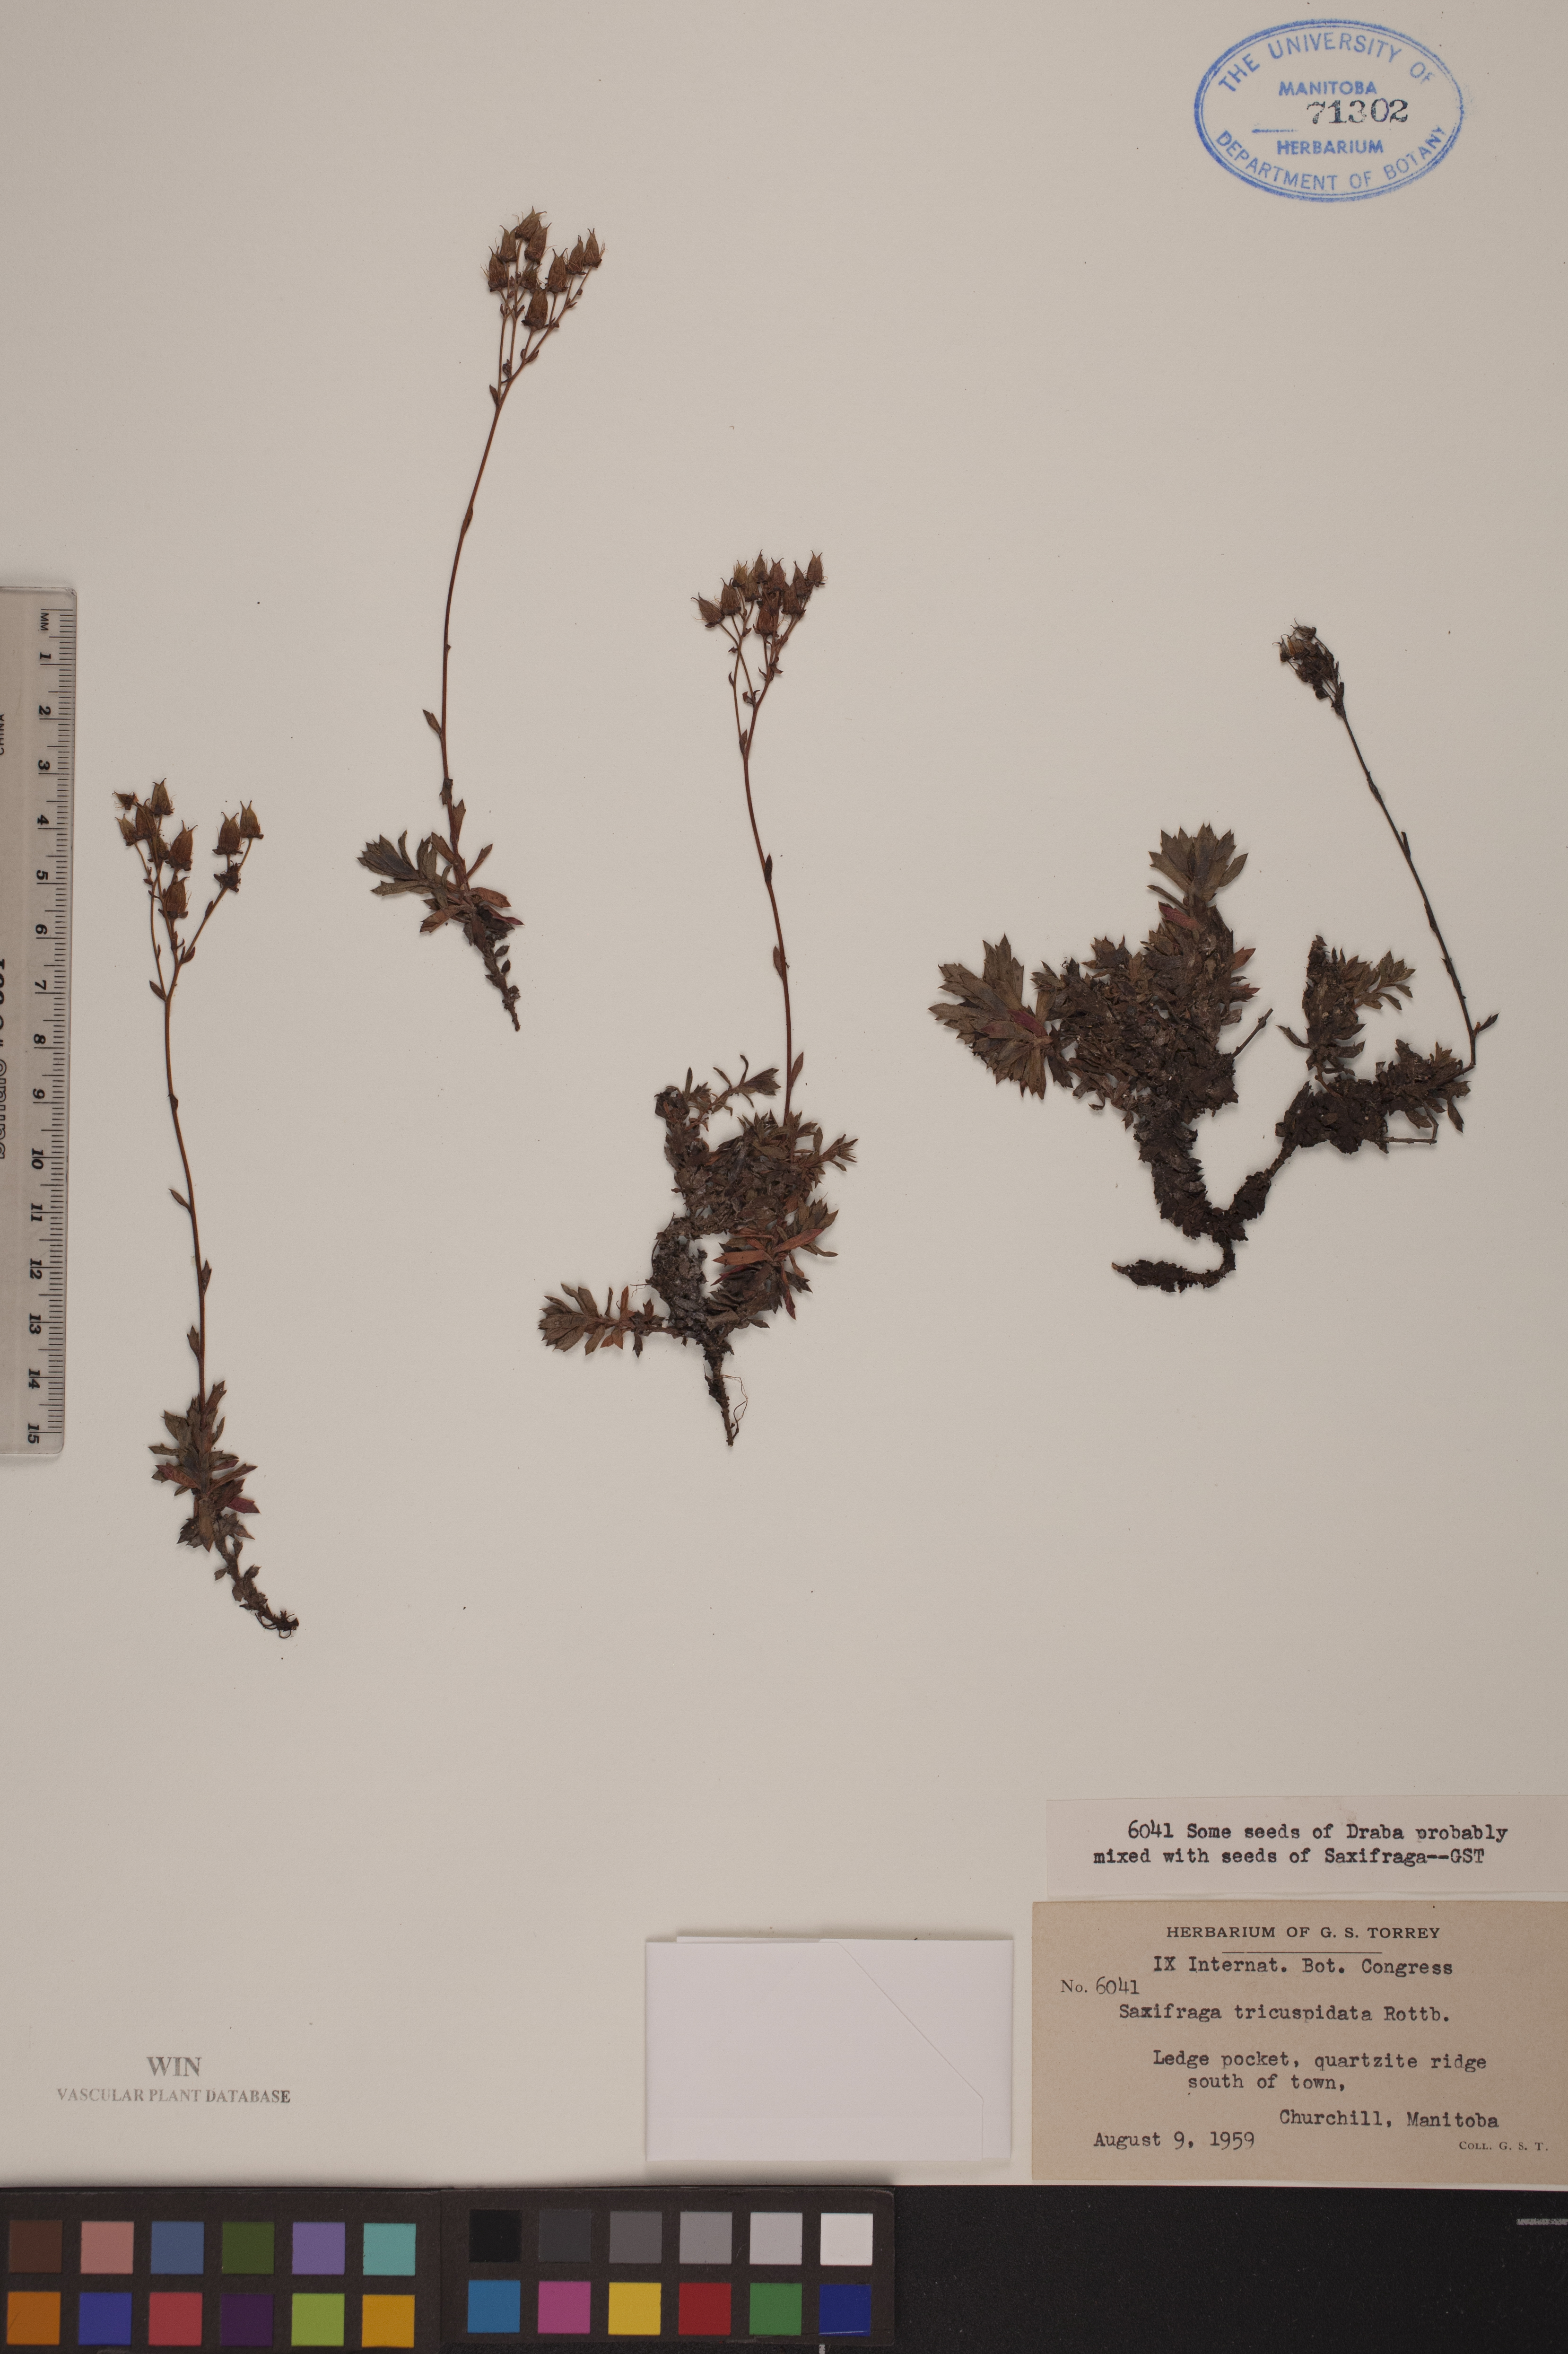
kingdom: Plantae
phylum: Tracheophyta
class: Magnoliopsida
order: Saxifragales
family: Saxifragaceae
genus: Saxifraga
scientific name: Saxifraga tricuspidata
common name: Prickly saxifrage
